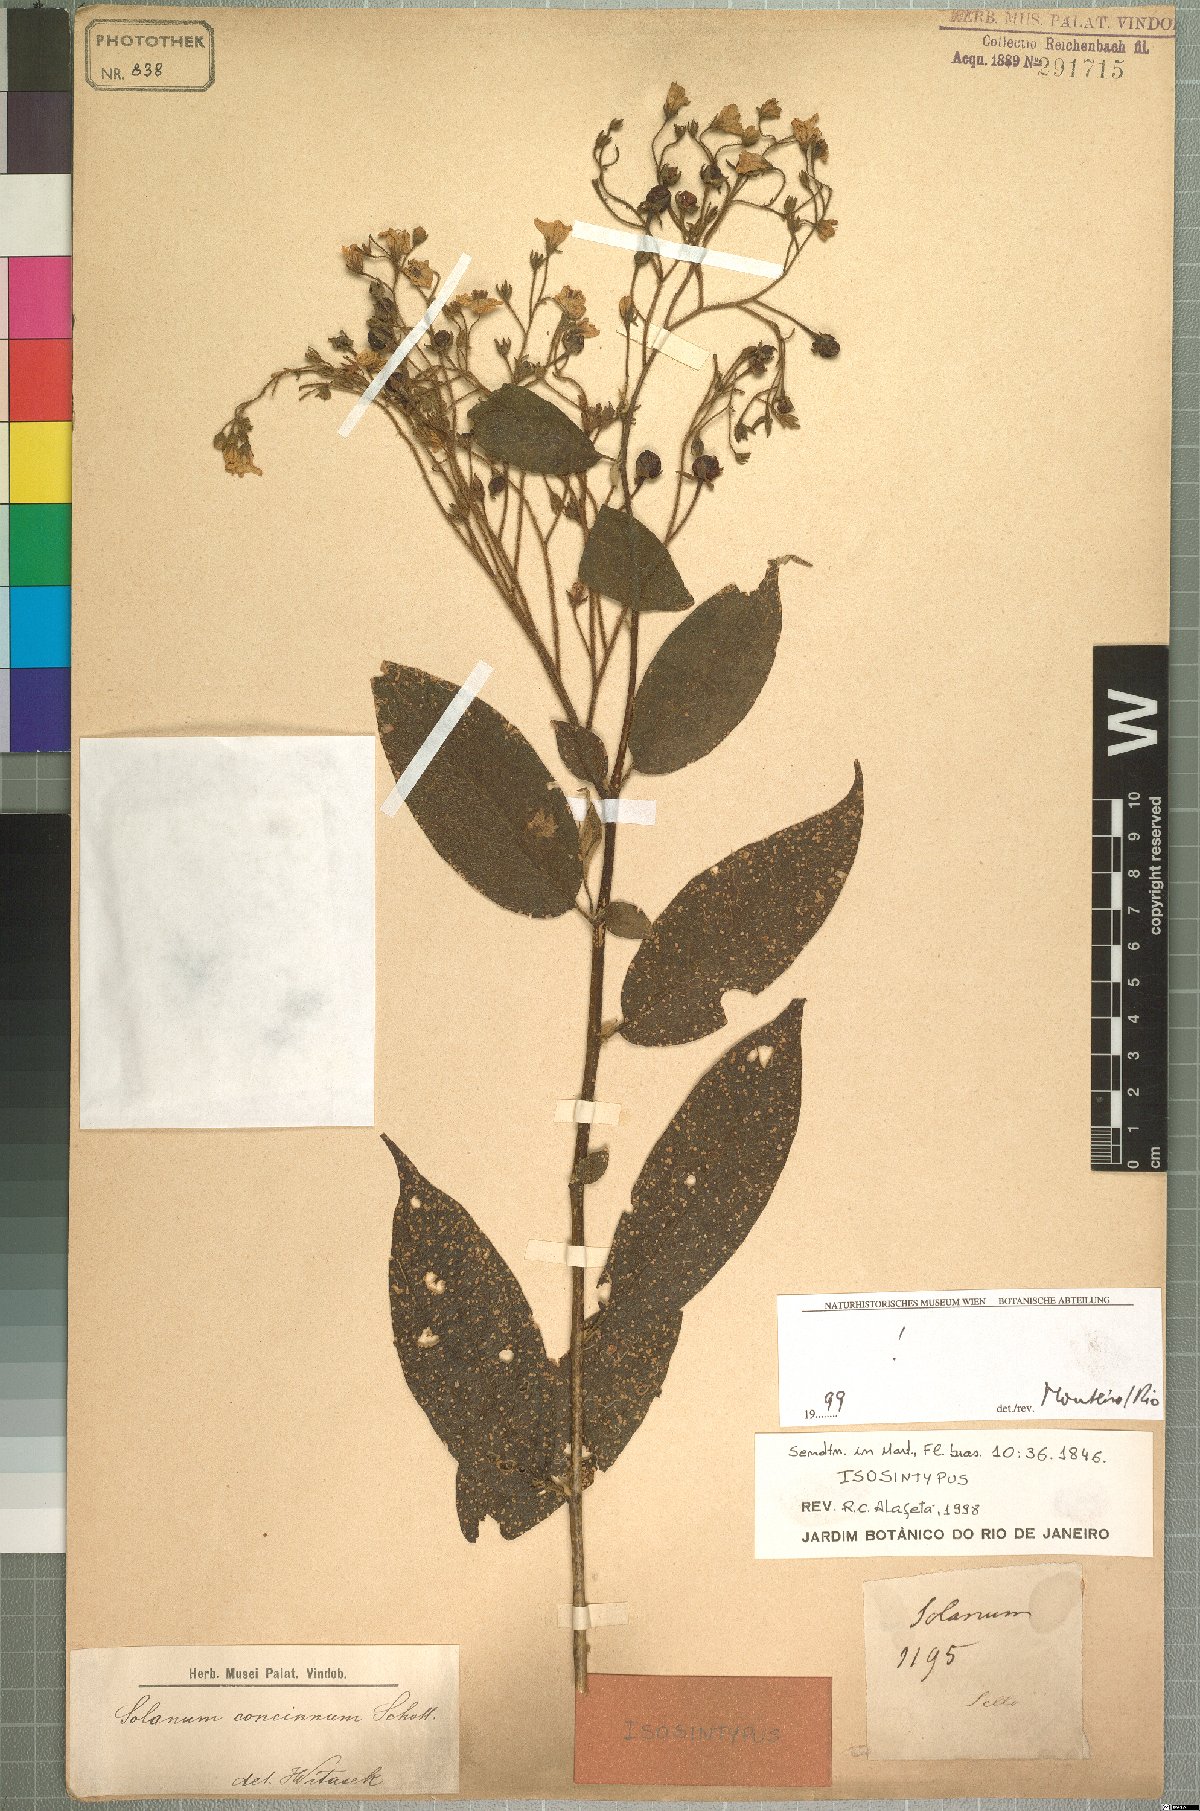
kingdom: Plantae
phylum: Tracheophyta
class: Magnoliopsida
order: Solanales
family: Solanaceae
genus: Solanum
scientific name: Solanum concinnum
